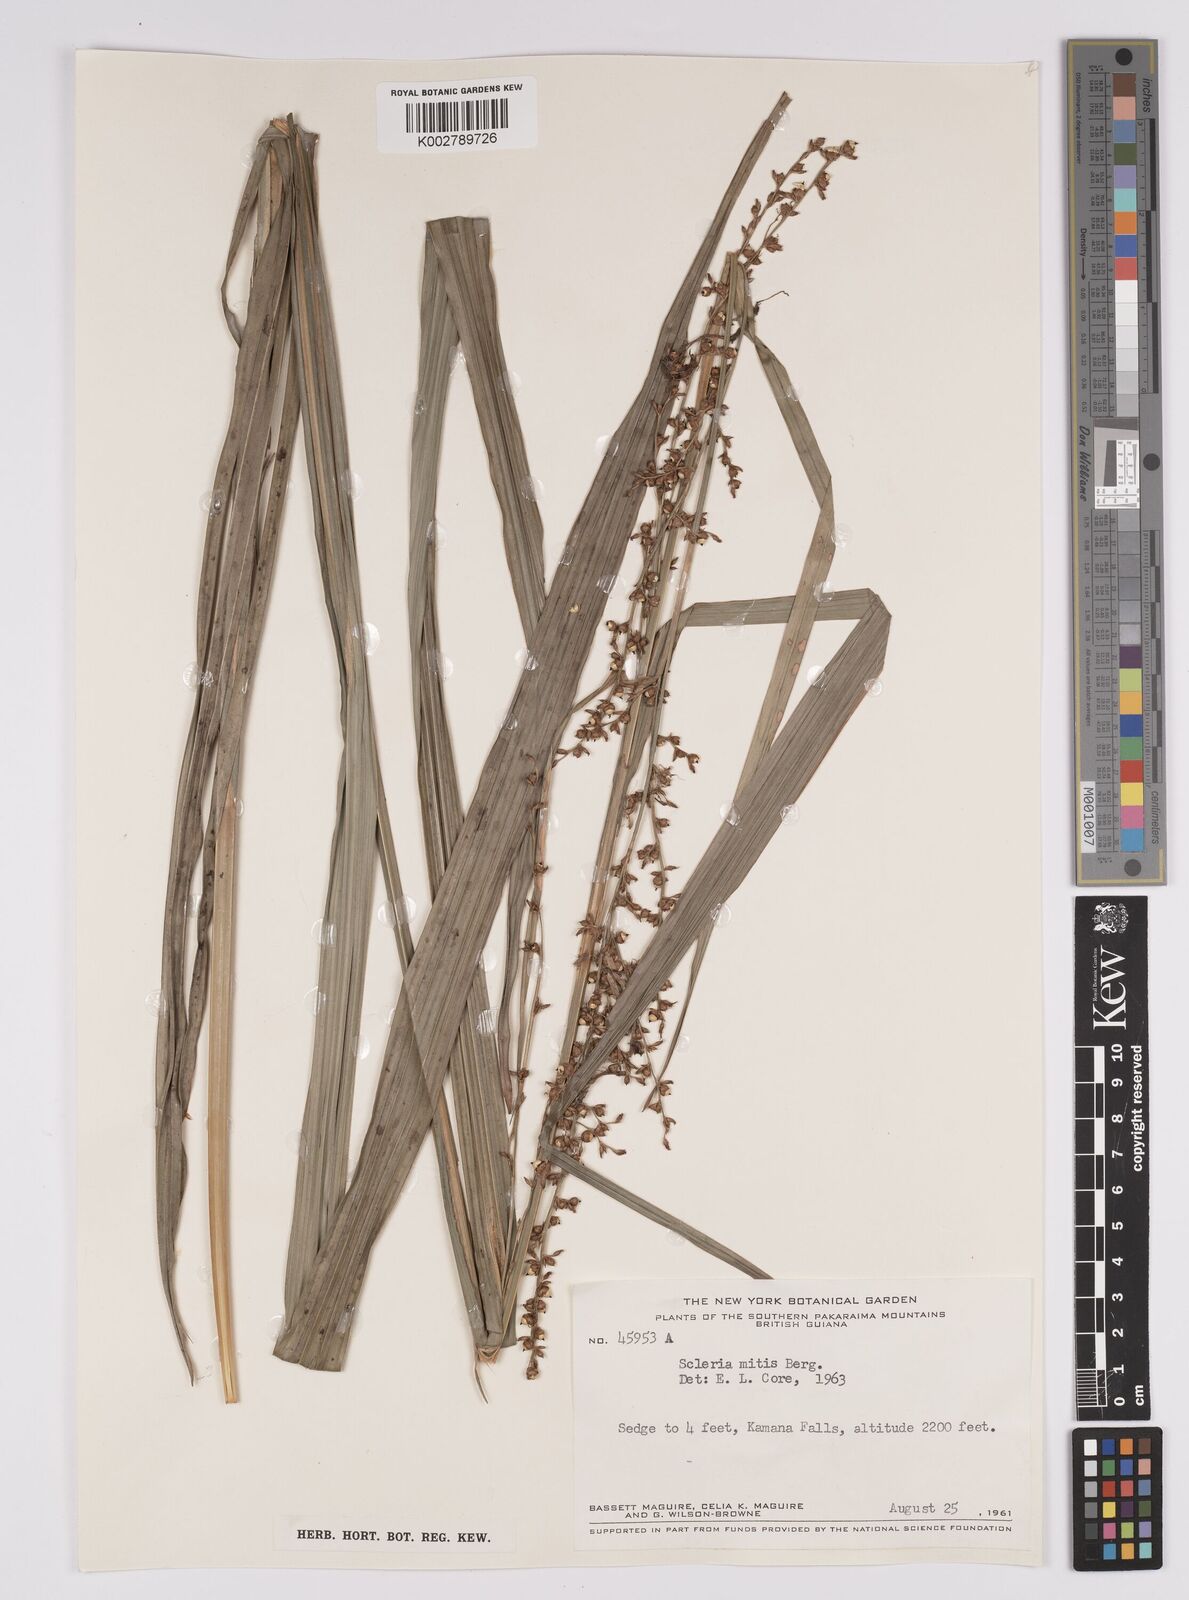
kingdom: Plantae
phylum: Tracheophyta
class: Liliopsida
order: Poales
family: Cyperaceae
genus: Scleria
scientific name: Scleria mitis
